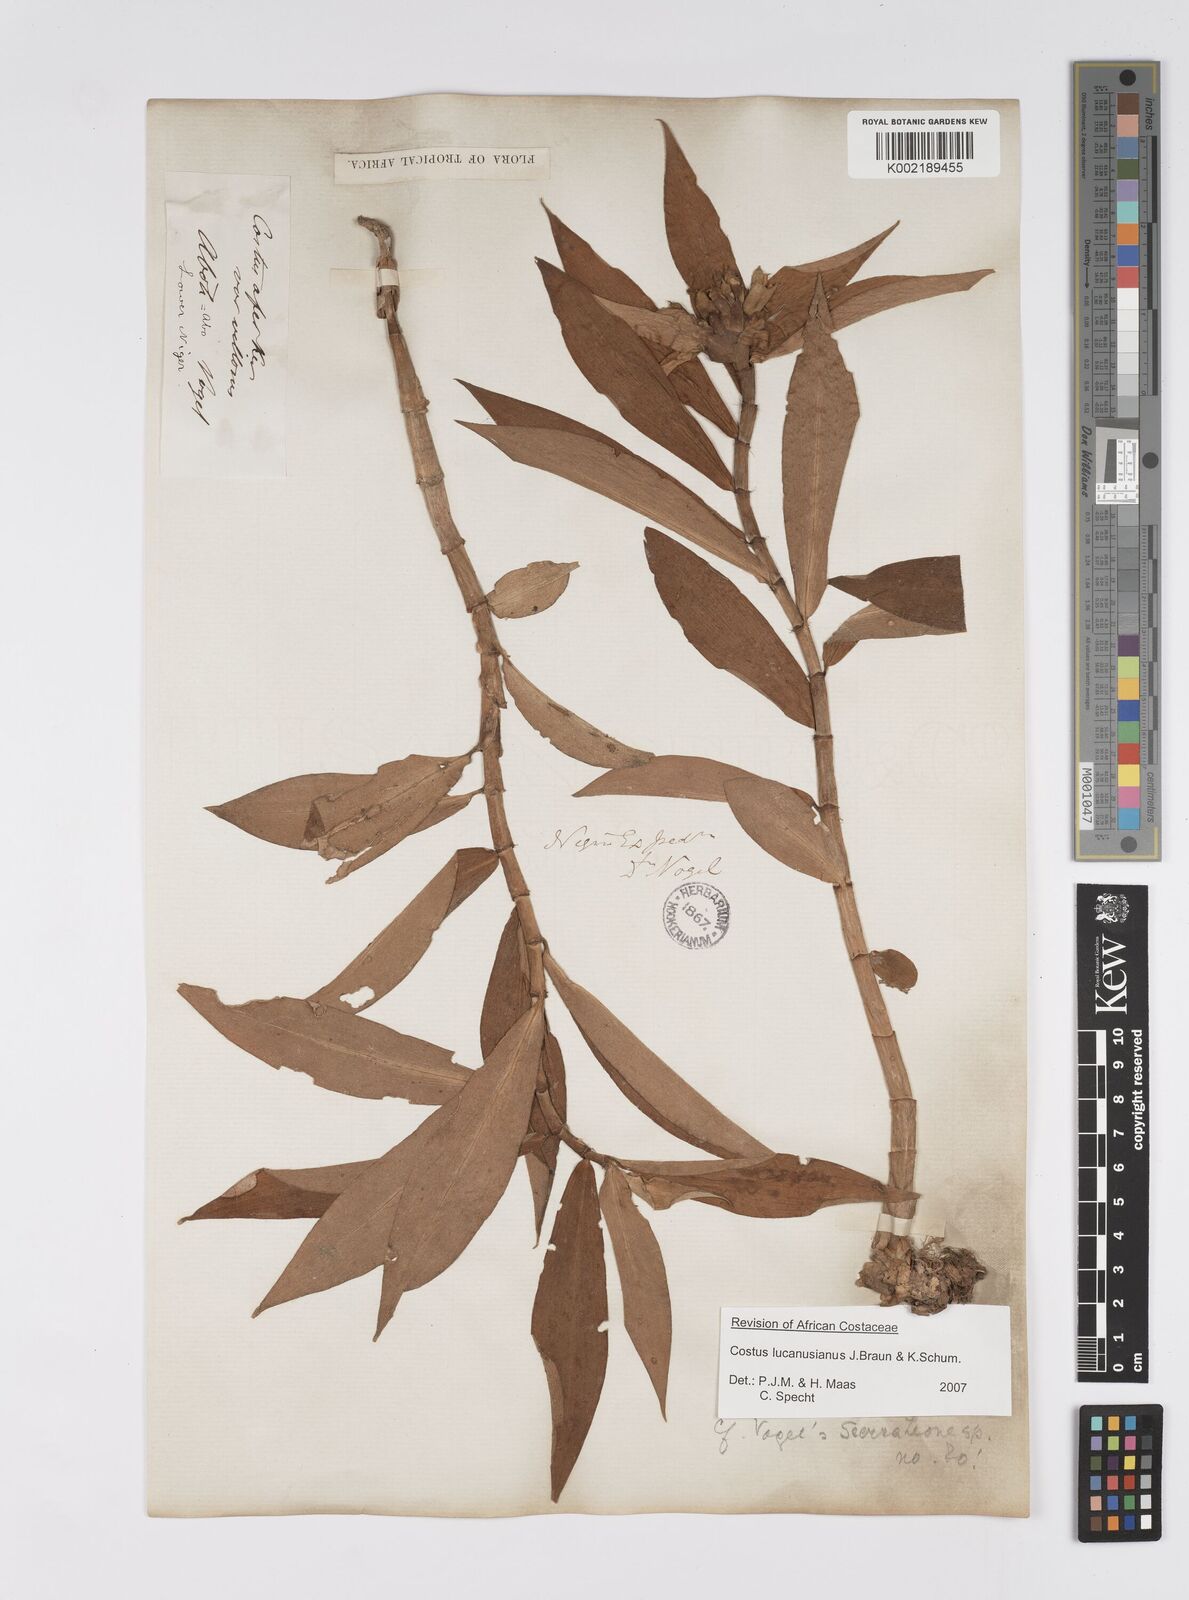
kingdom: Plantae
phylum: Tracheophyta
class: Liliopsida
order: Zingiberales
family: Costaceae
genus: Costus
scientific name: Costus lucanusianus
